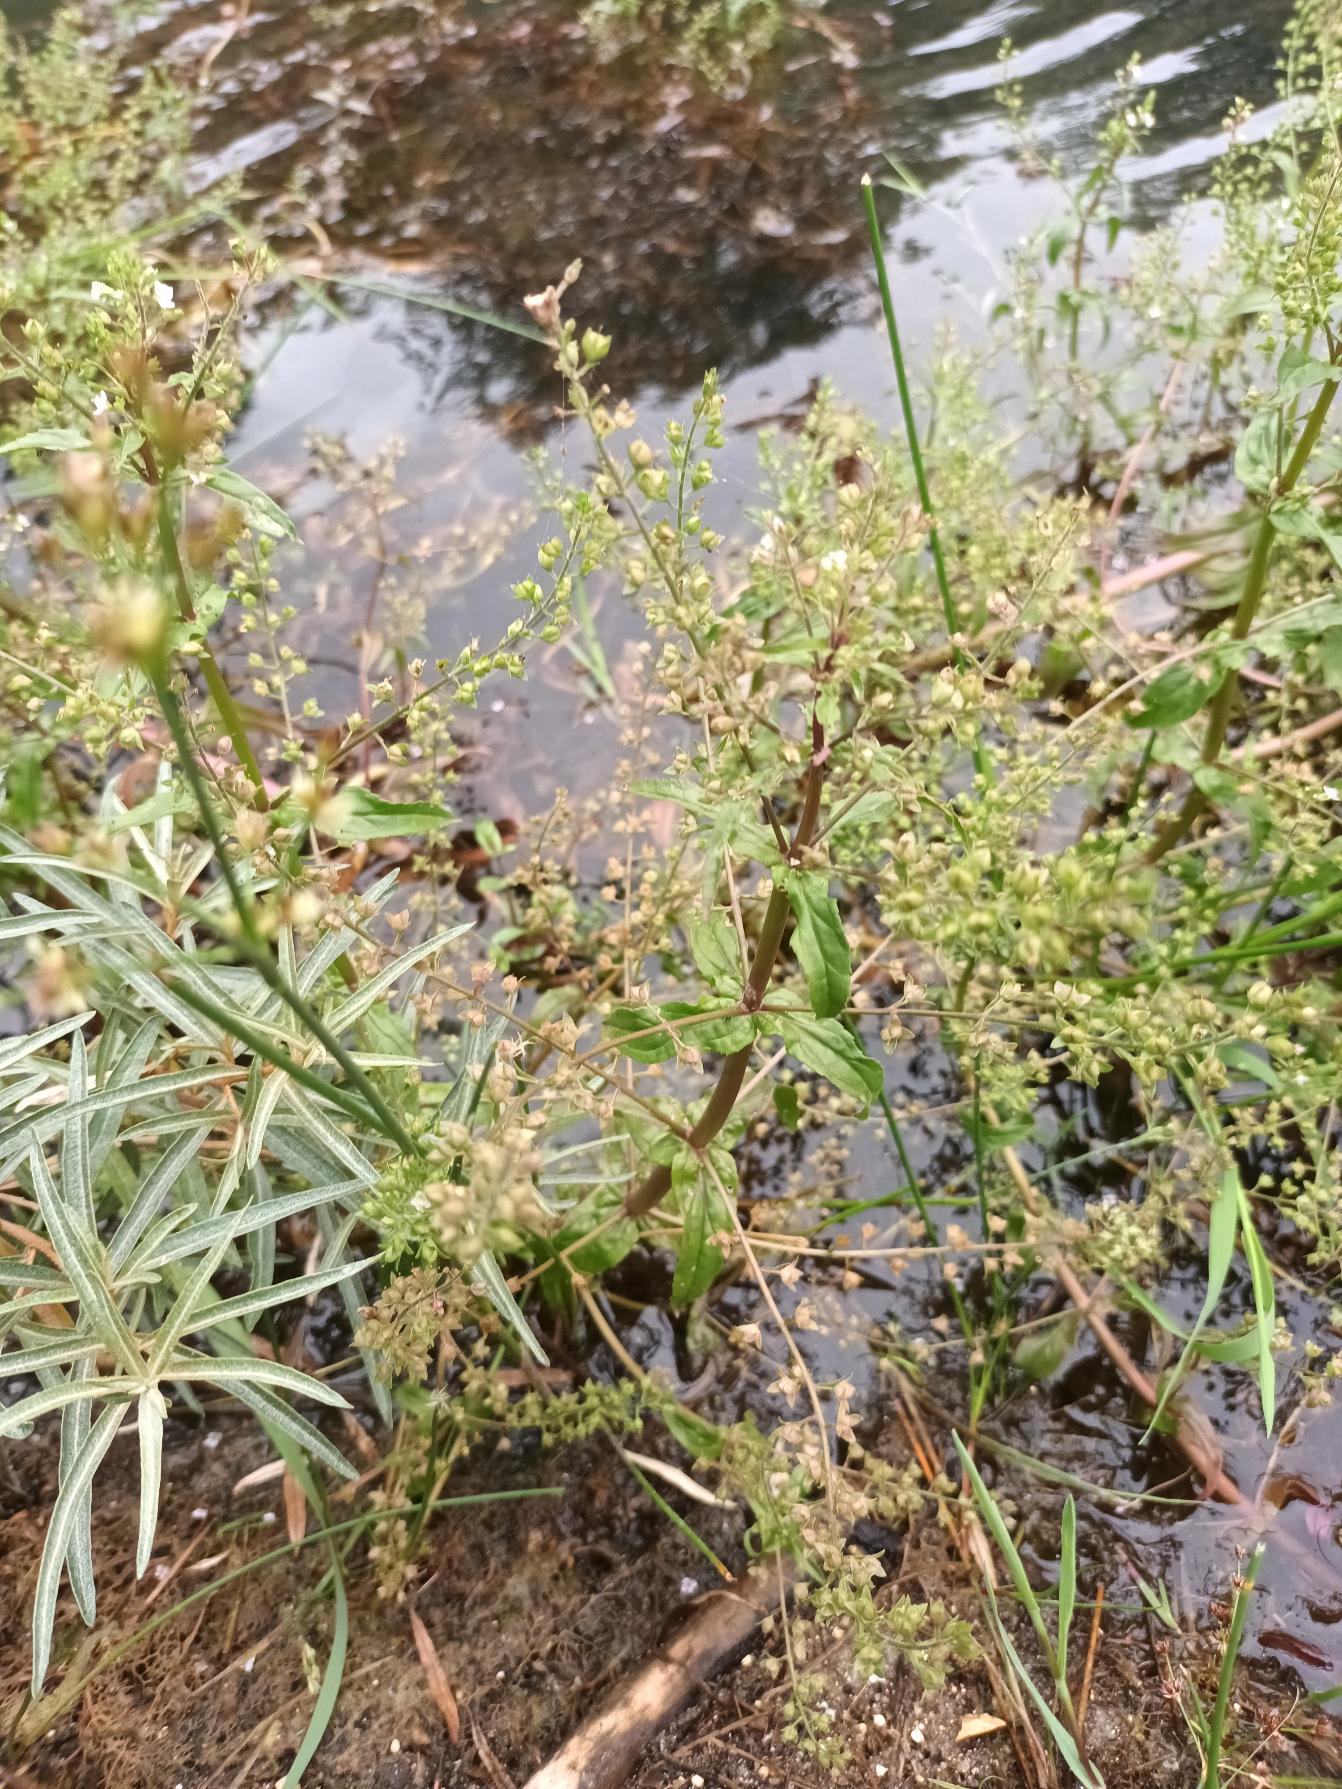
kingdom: Plantae
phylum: Tracheophyta
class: Magnoliopsida
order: Lamiales
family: Plantaginaceae
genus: Veronica
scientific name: Veronica catenata
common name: Vand-ærenpris
